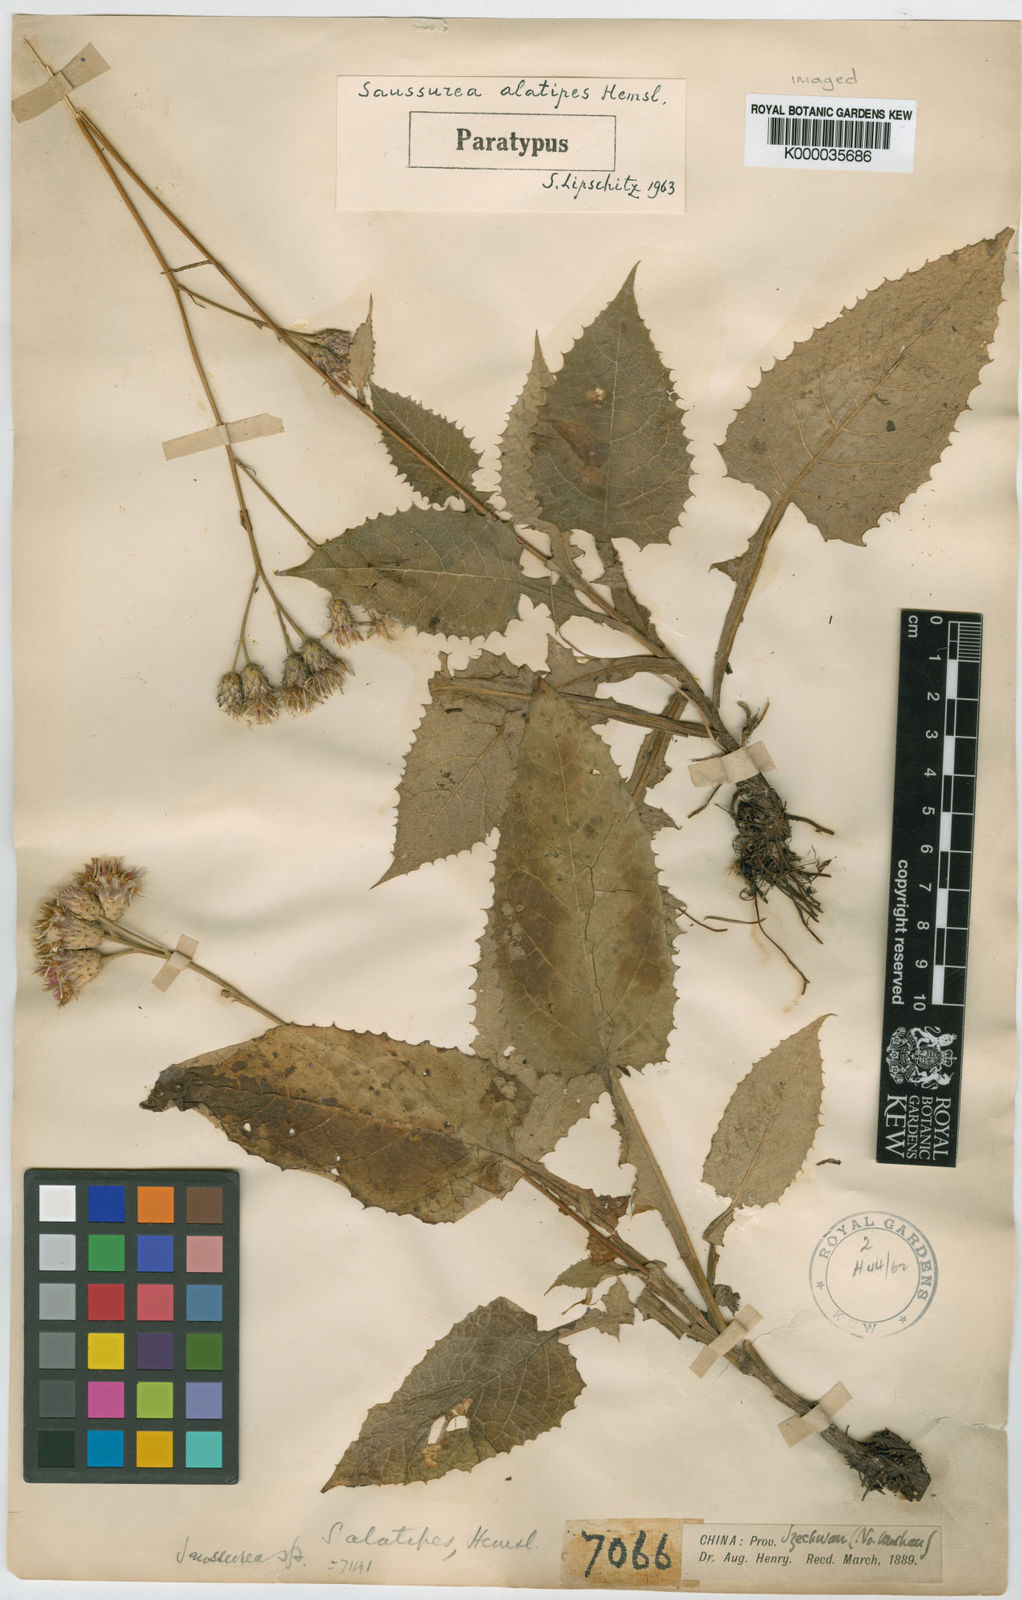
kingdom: Plantae
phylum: Tracheophyta
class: Magnoliopsida
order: Asterales
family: Asteraceae
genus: Saussurea
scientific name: Saussurea alatipes
